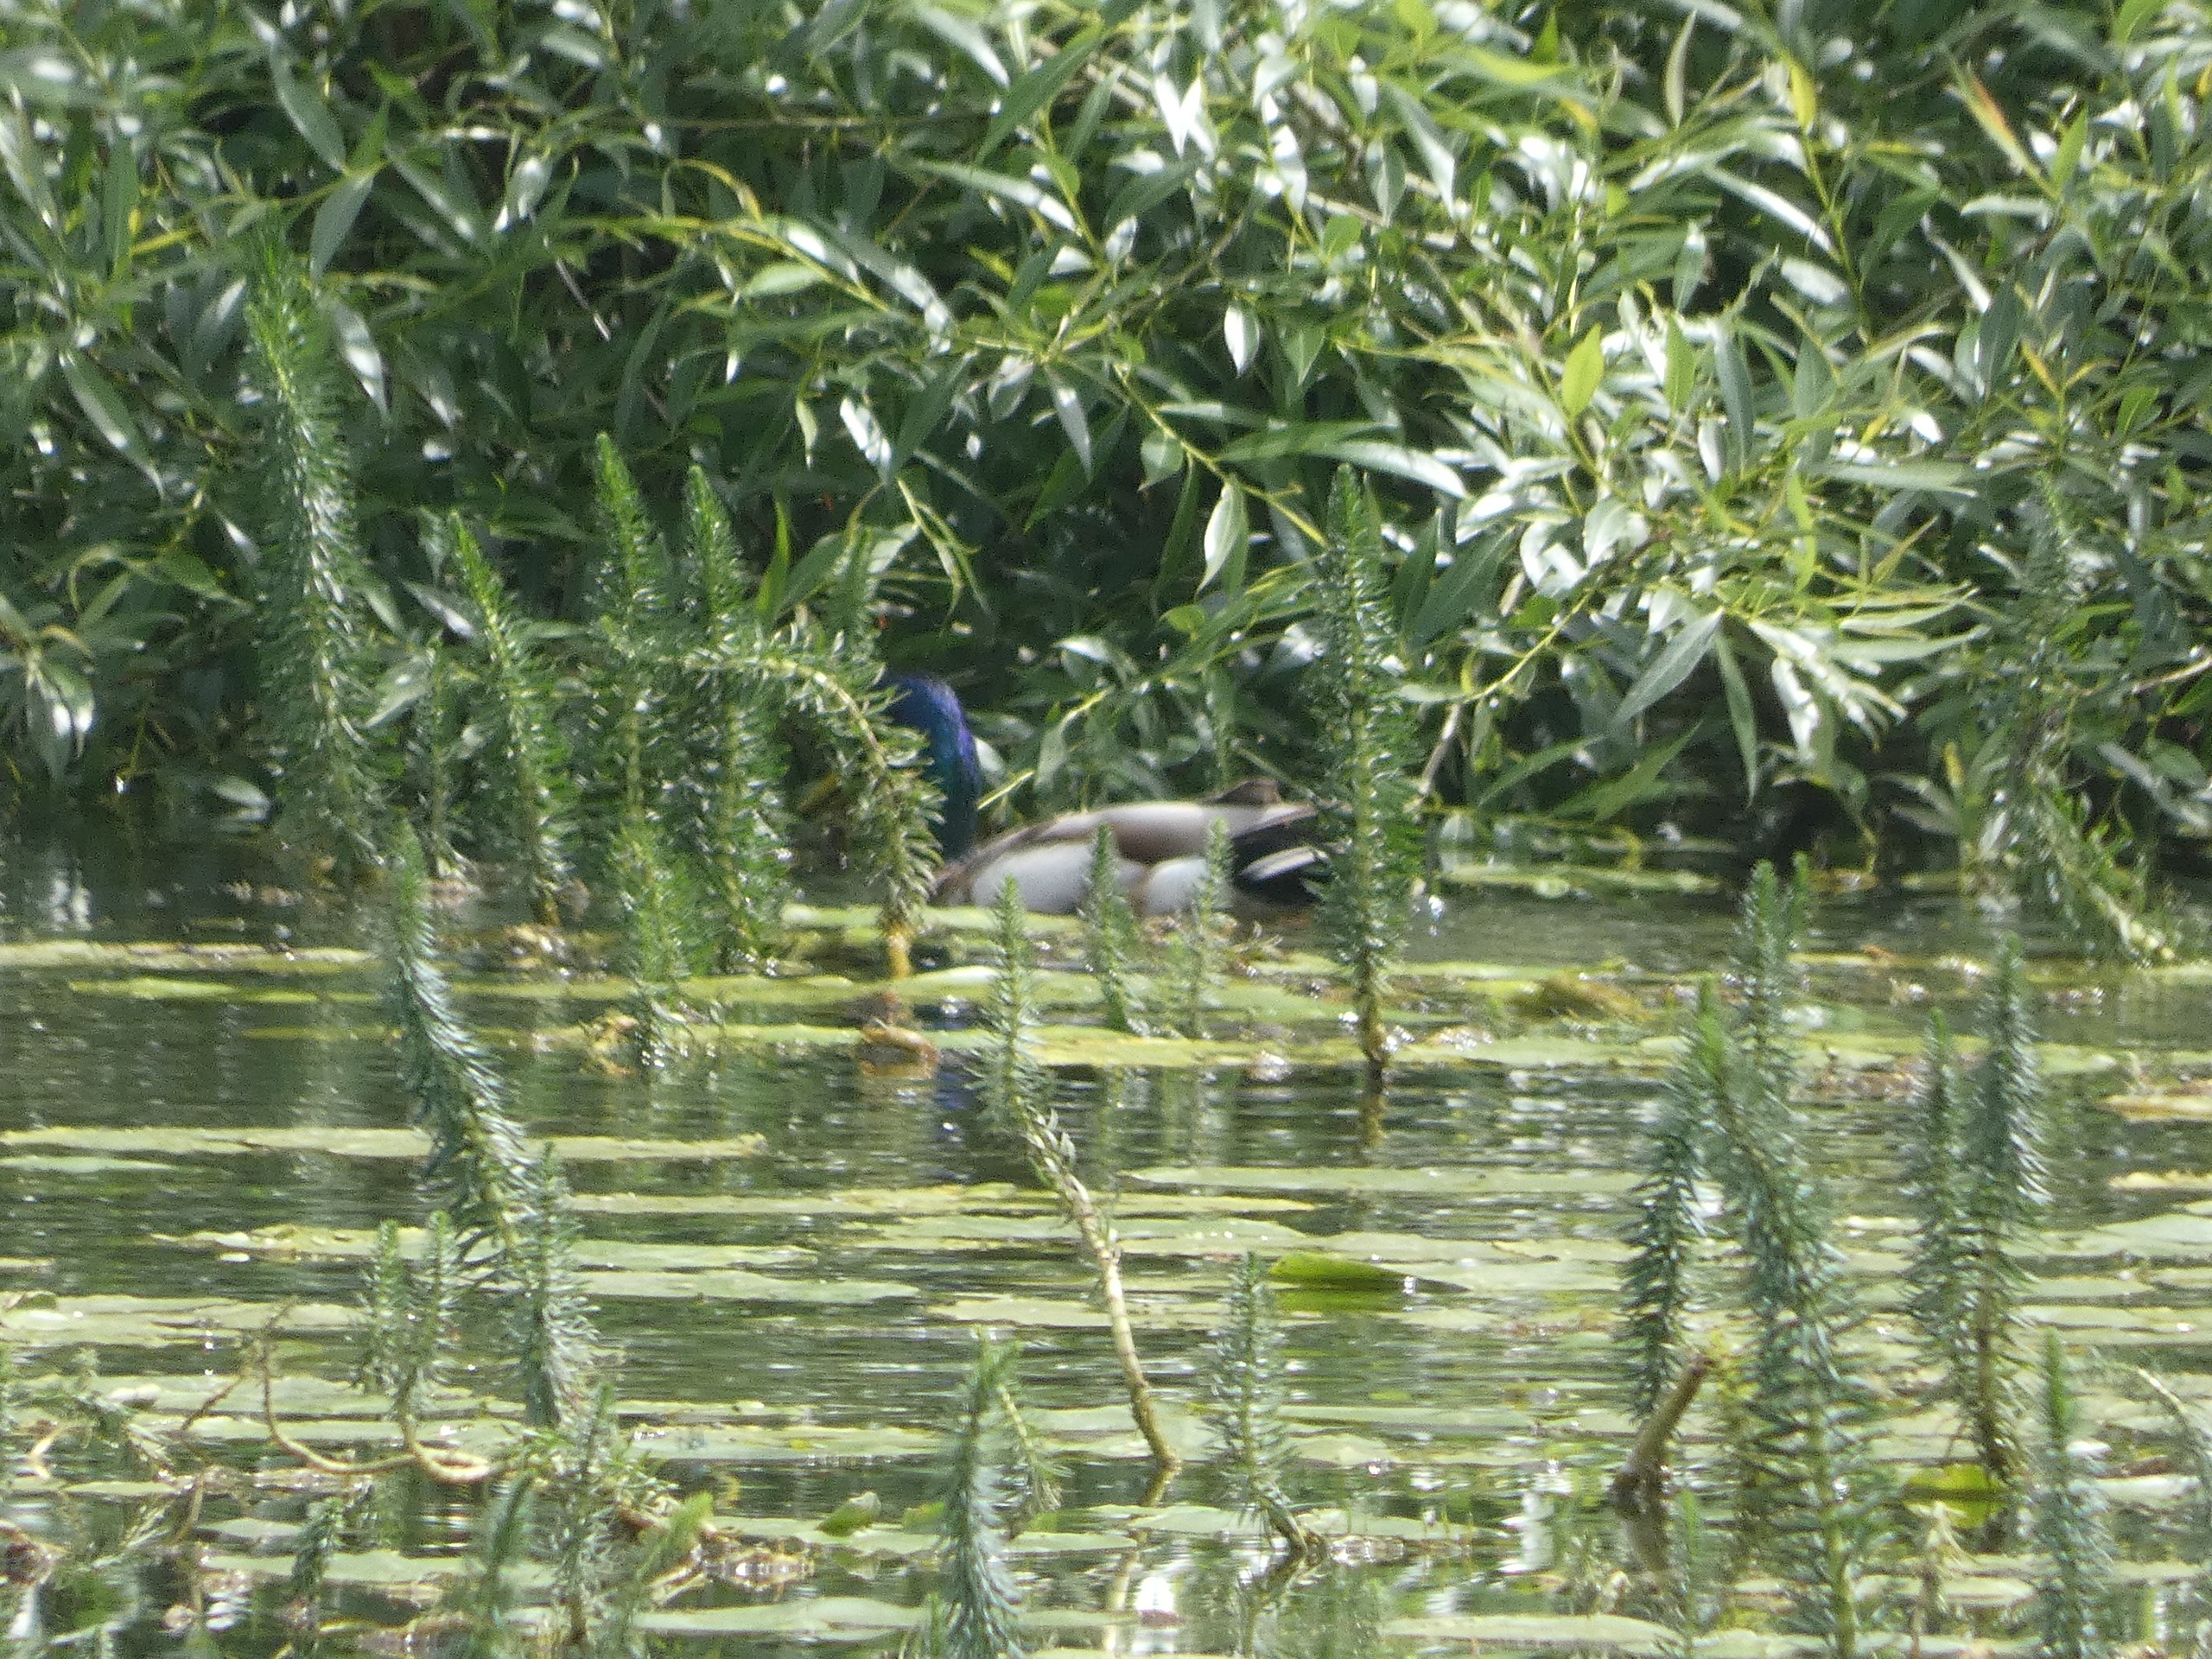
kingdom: Plantae
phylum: Tracheophyta
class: Magnoliopsida
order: Lamiales
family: Plantaginaceae
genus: Hippuris
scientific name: Hippuris vulgaris
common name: Vandspir
